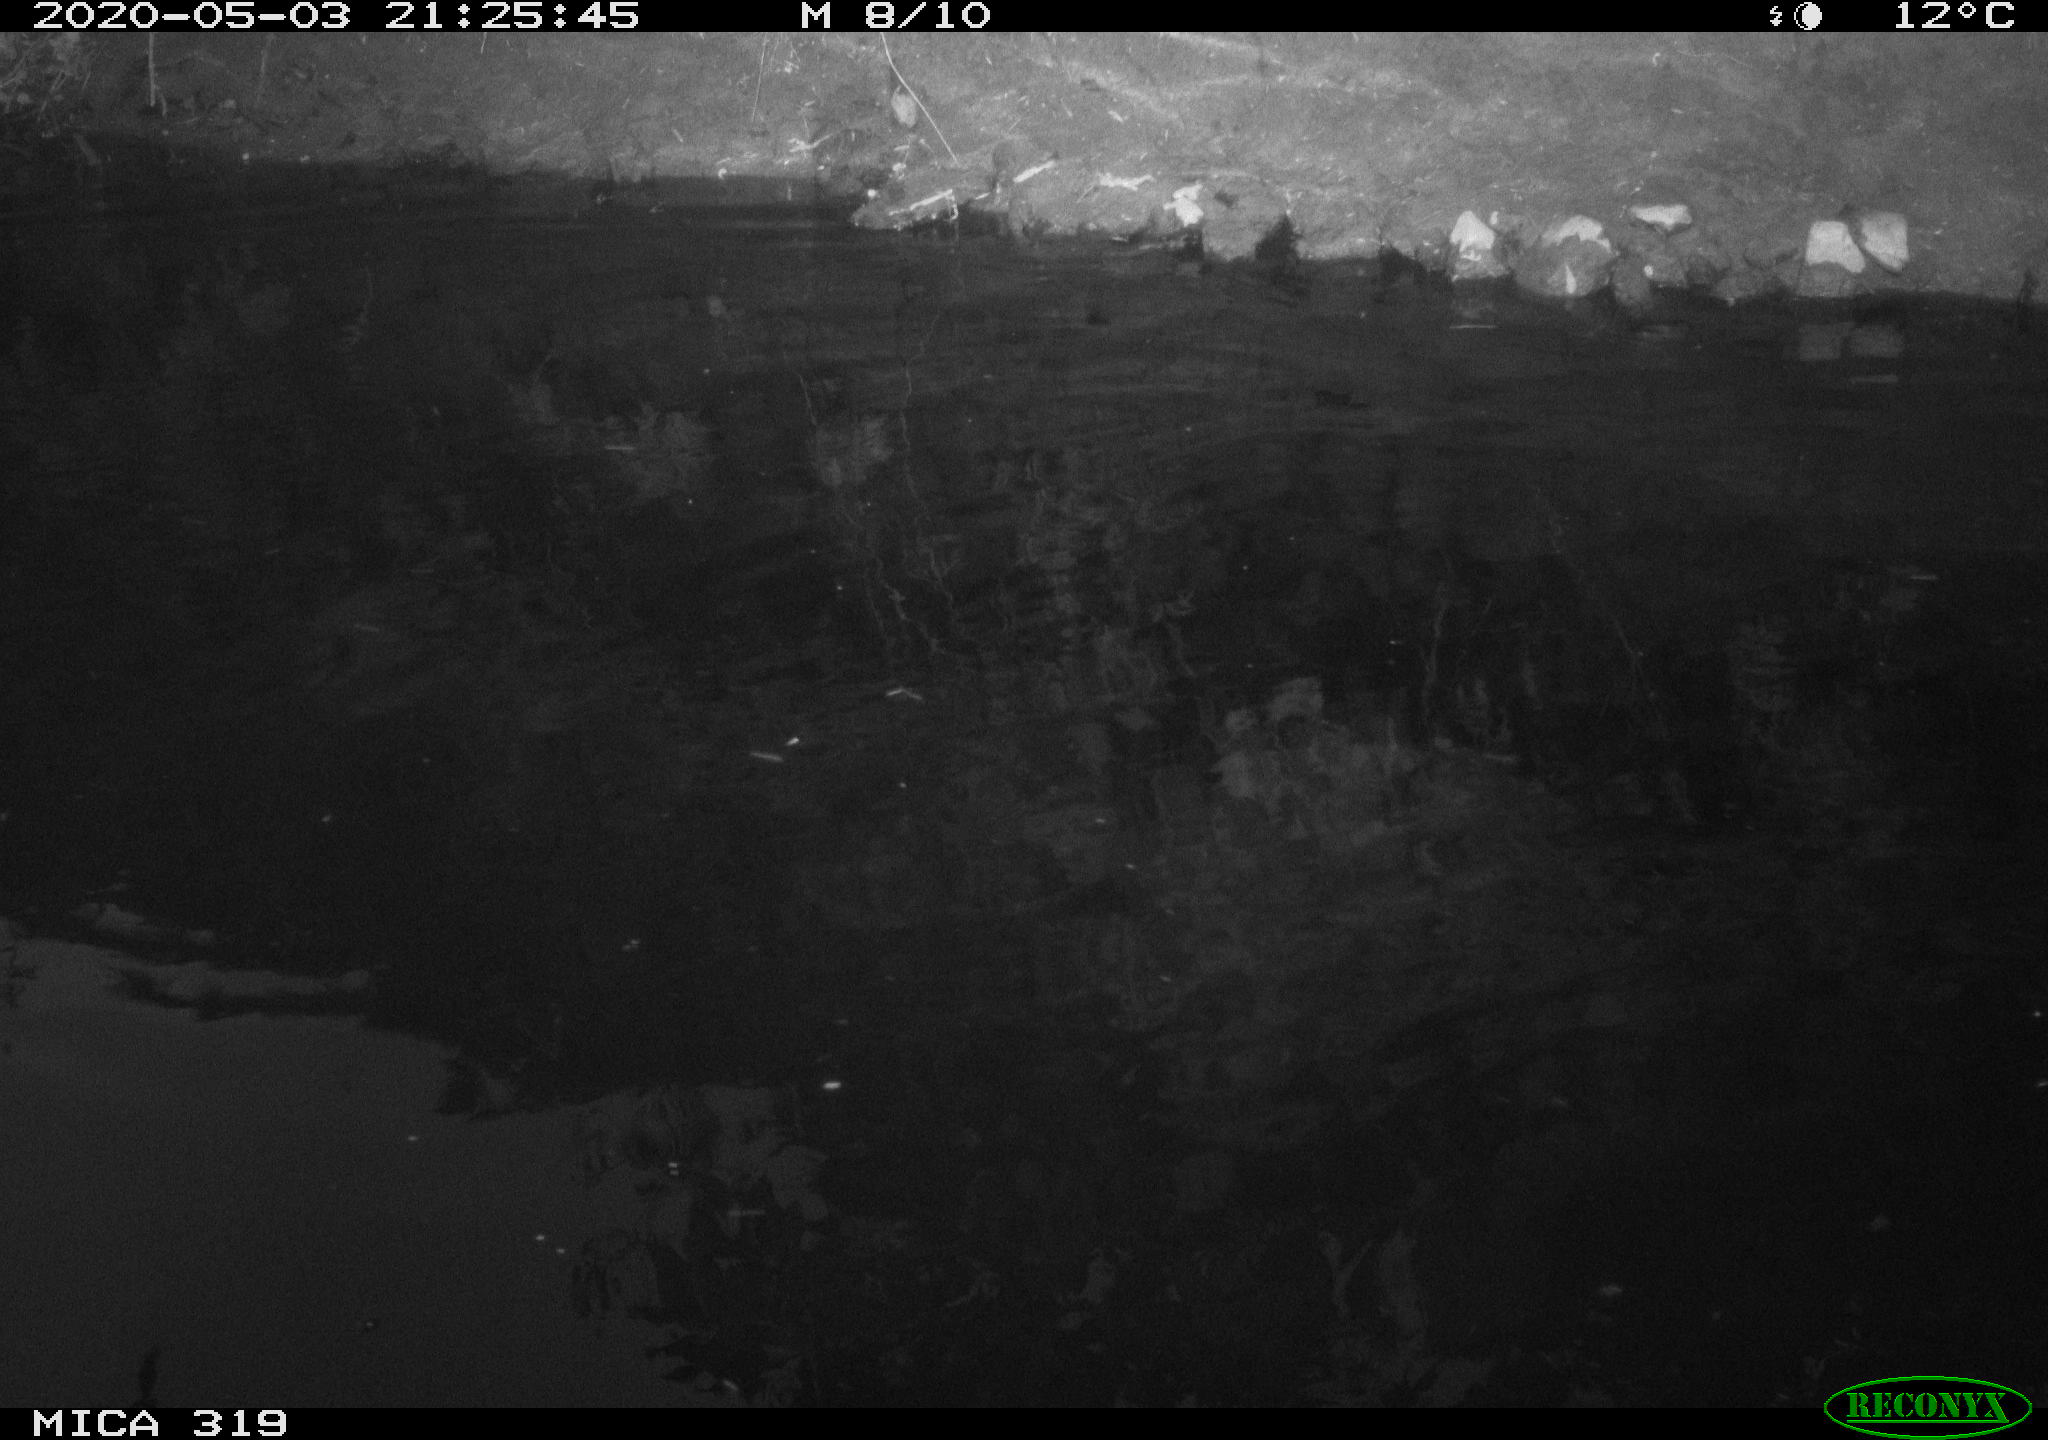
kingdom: Animalia
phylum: Chordata
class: Aves
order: Anseriformes
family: Anatidae
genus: Anas
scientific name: Anas platyrhynchos
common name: Mallard
